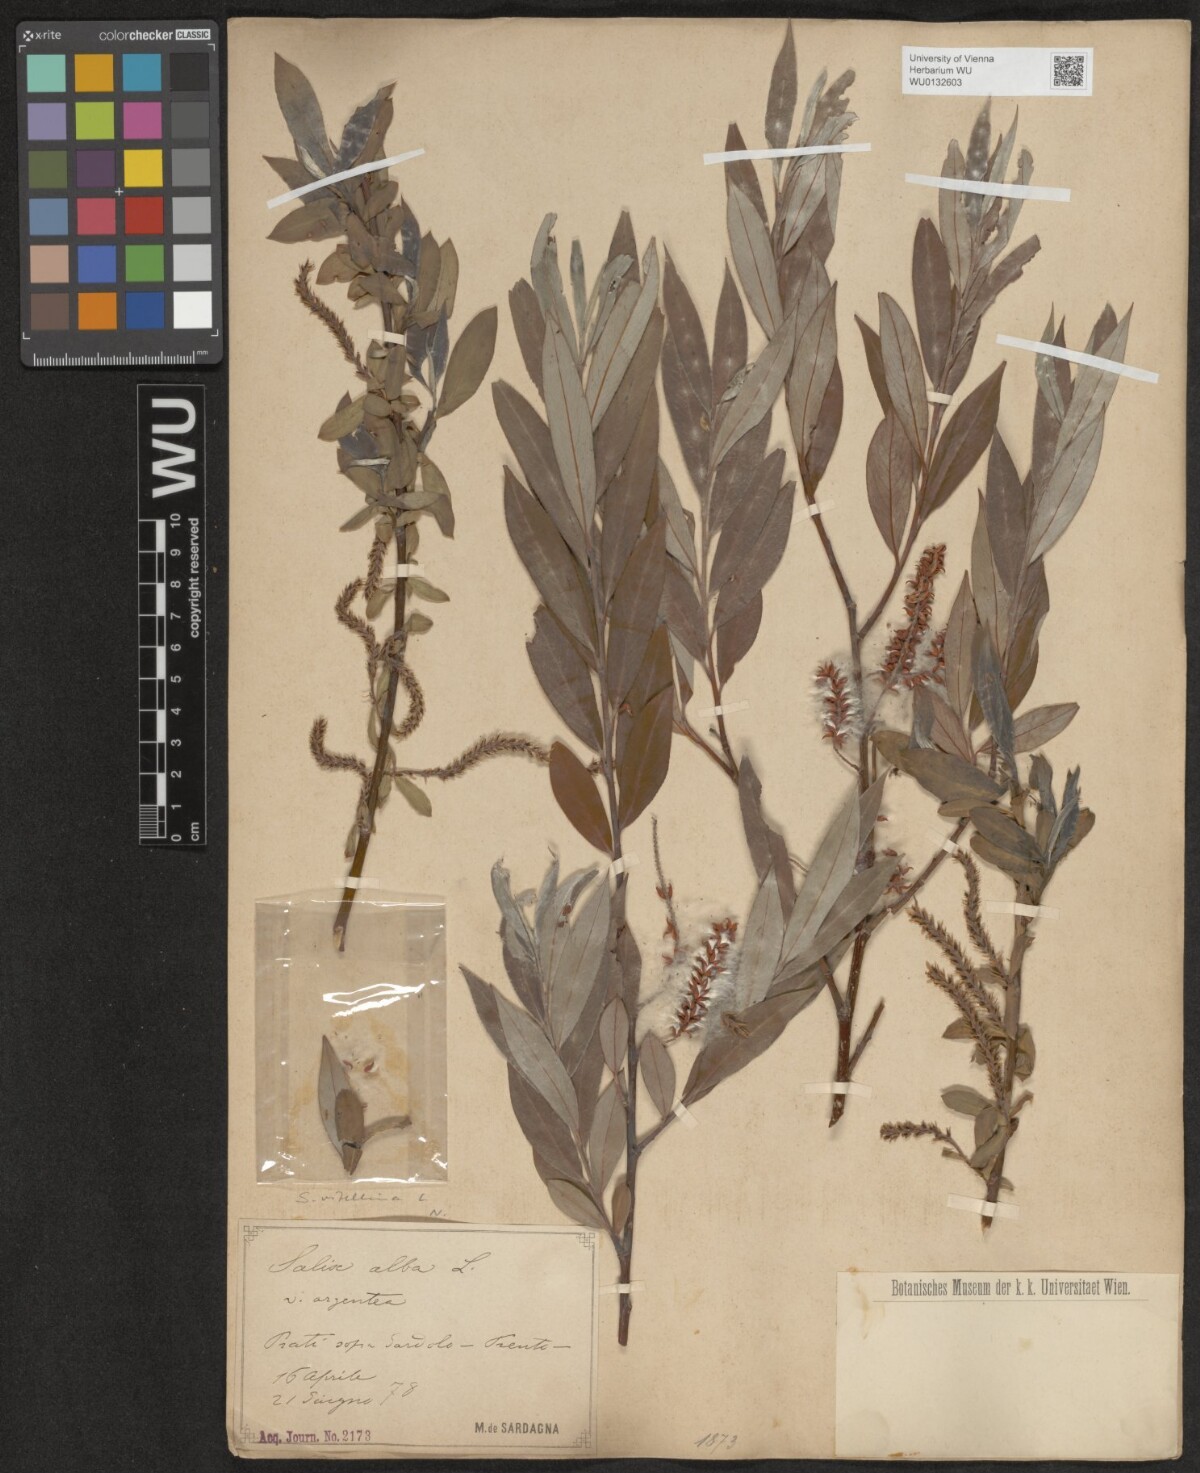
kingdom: Plantae
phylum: Tracheophyta
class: Magnoliopsida
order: Malpighiales
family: Salicaceae
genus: Salix
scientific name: Salix alba
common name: White willow
